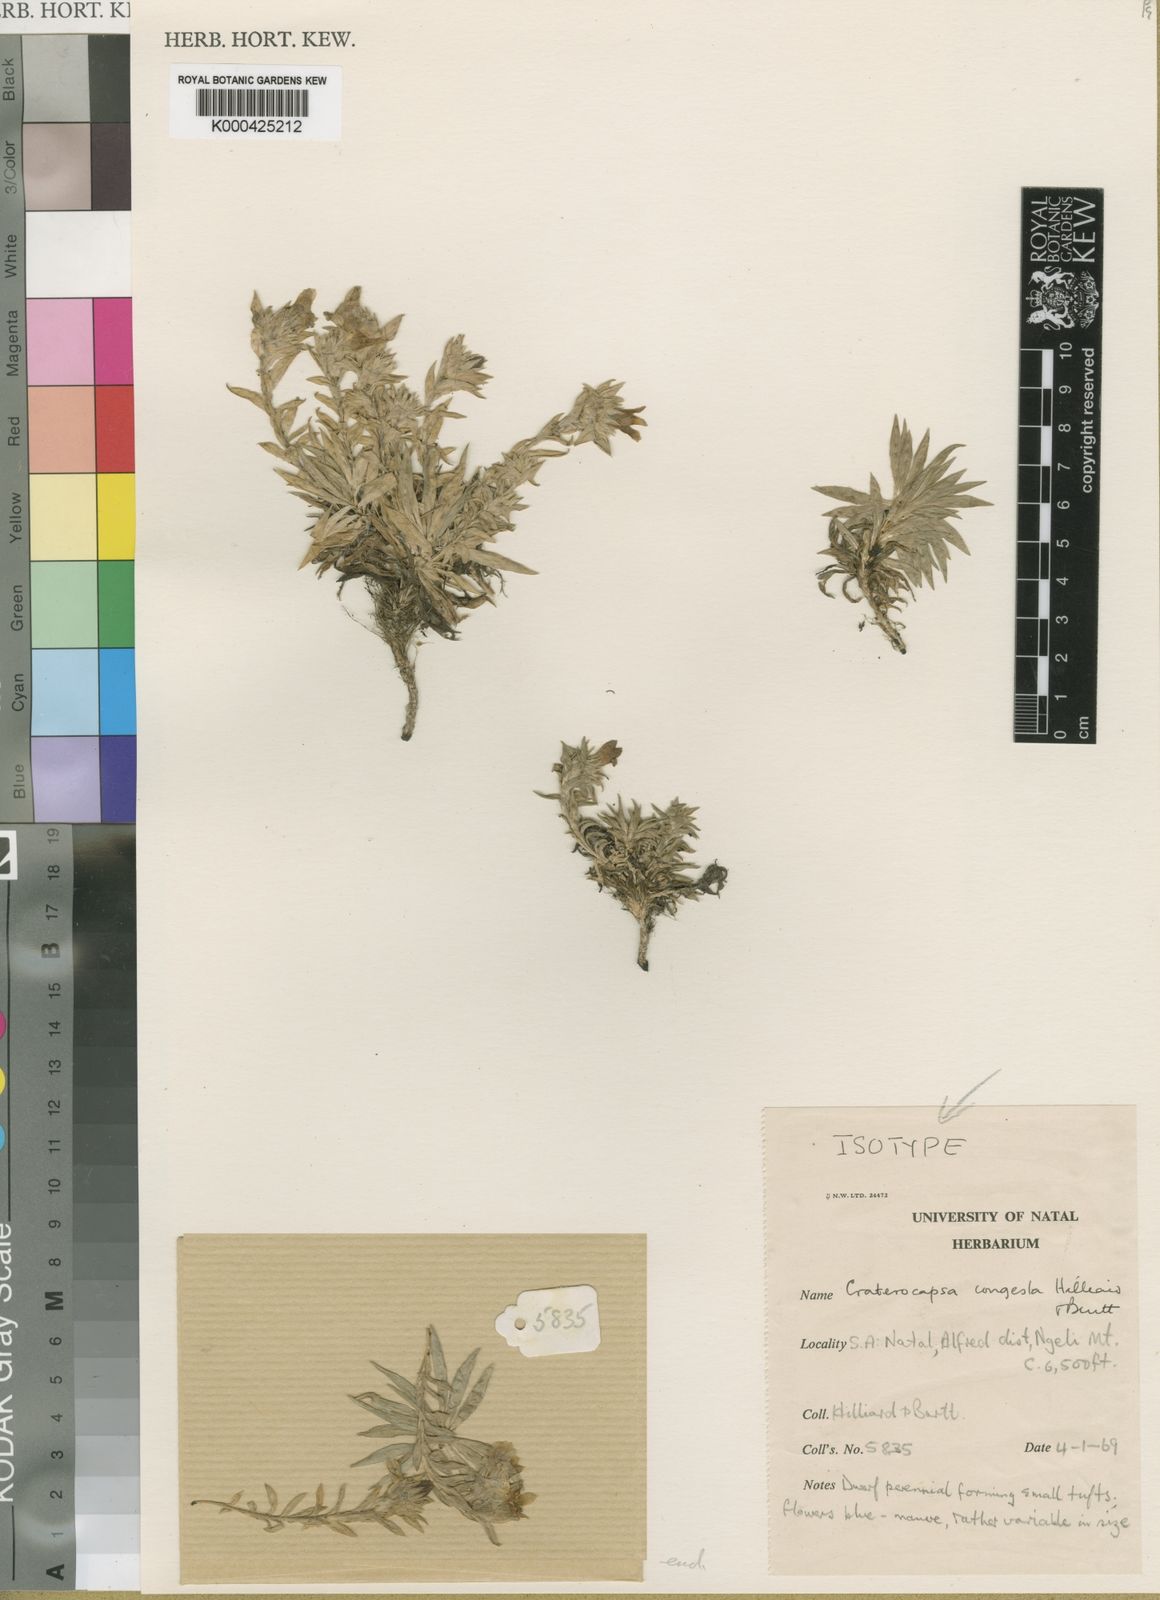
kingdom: Plantae
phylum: Tracheophyta
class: Magnoliopsida
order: Asterales
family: Campanulaceae
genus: Craterocapsa
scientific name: Craterocapsa congesta
